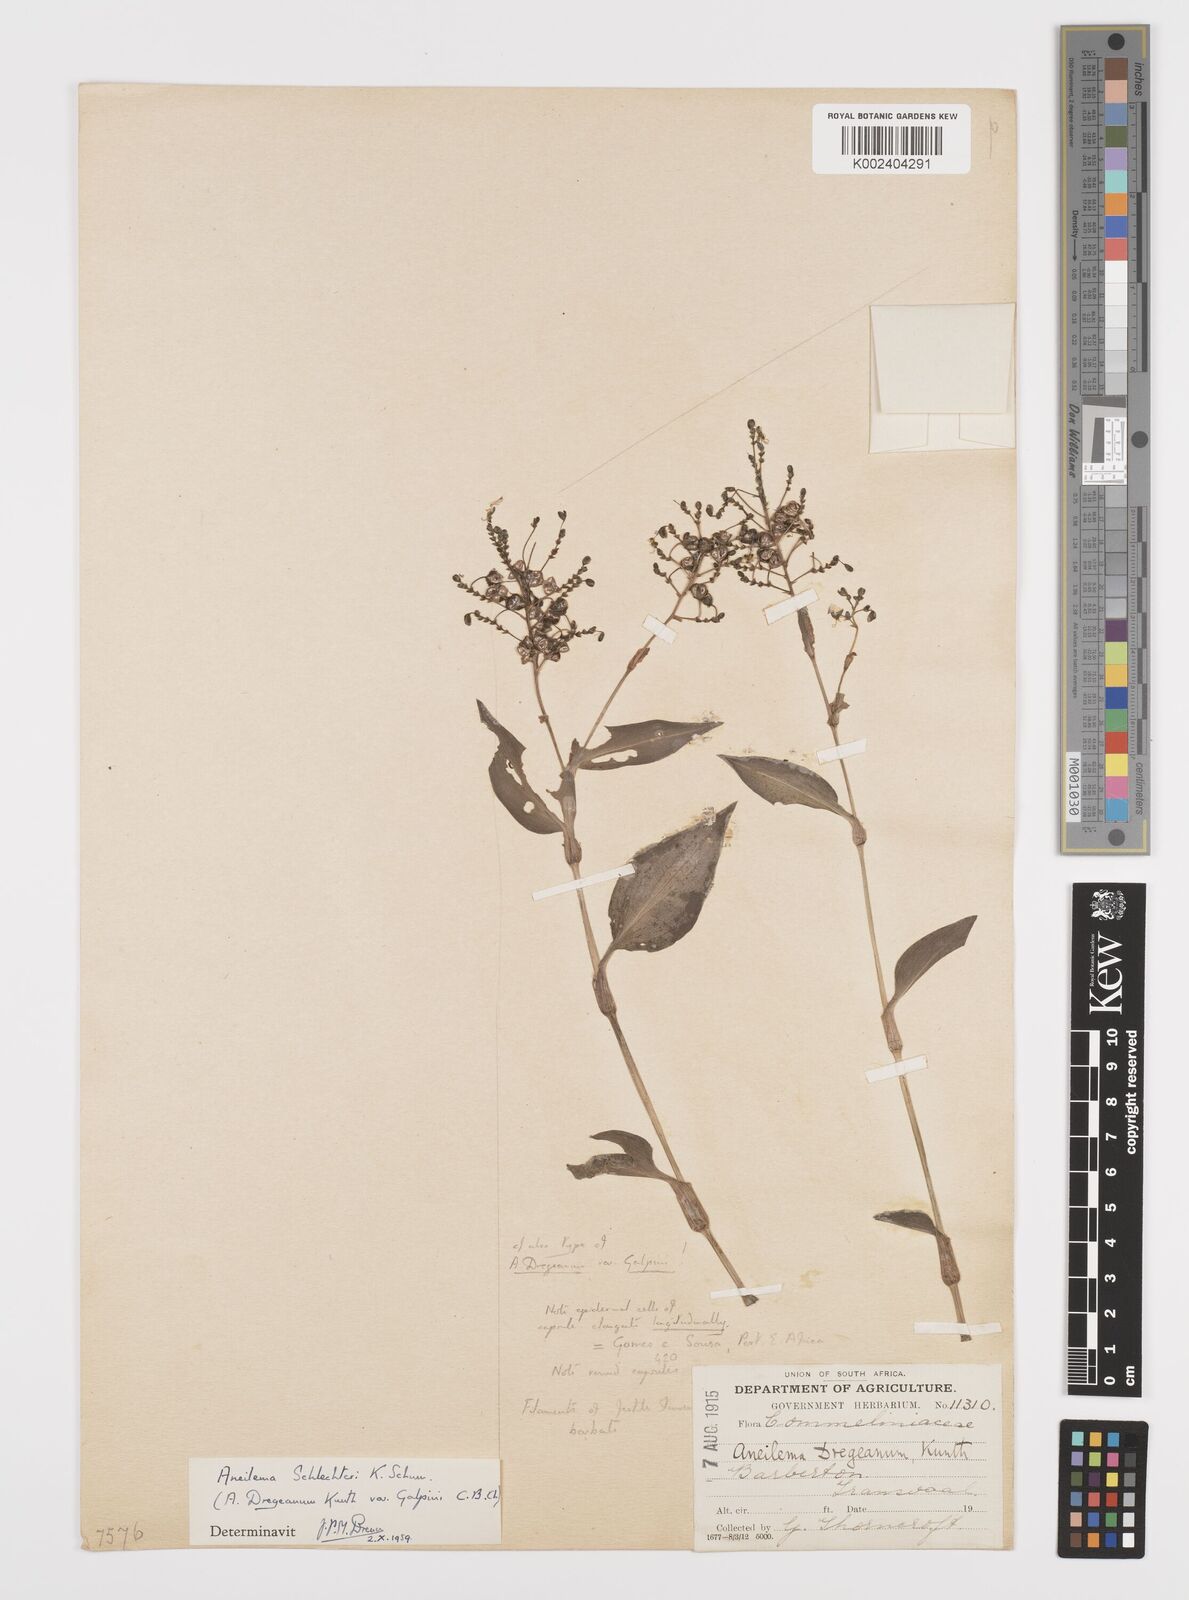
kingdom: Plantae
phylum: Tracheophyta
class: Liliopsida
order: Commelinales
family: Commelinaceae
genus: Aneilema
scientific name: Aneilema brunneospermum
